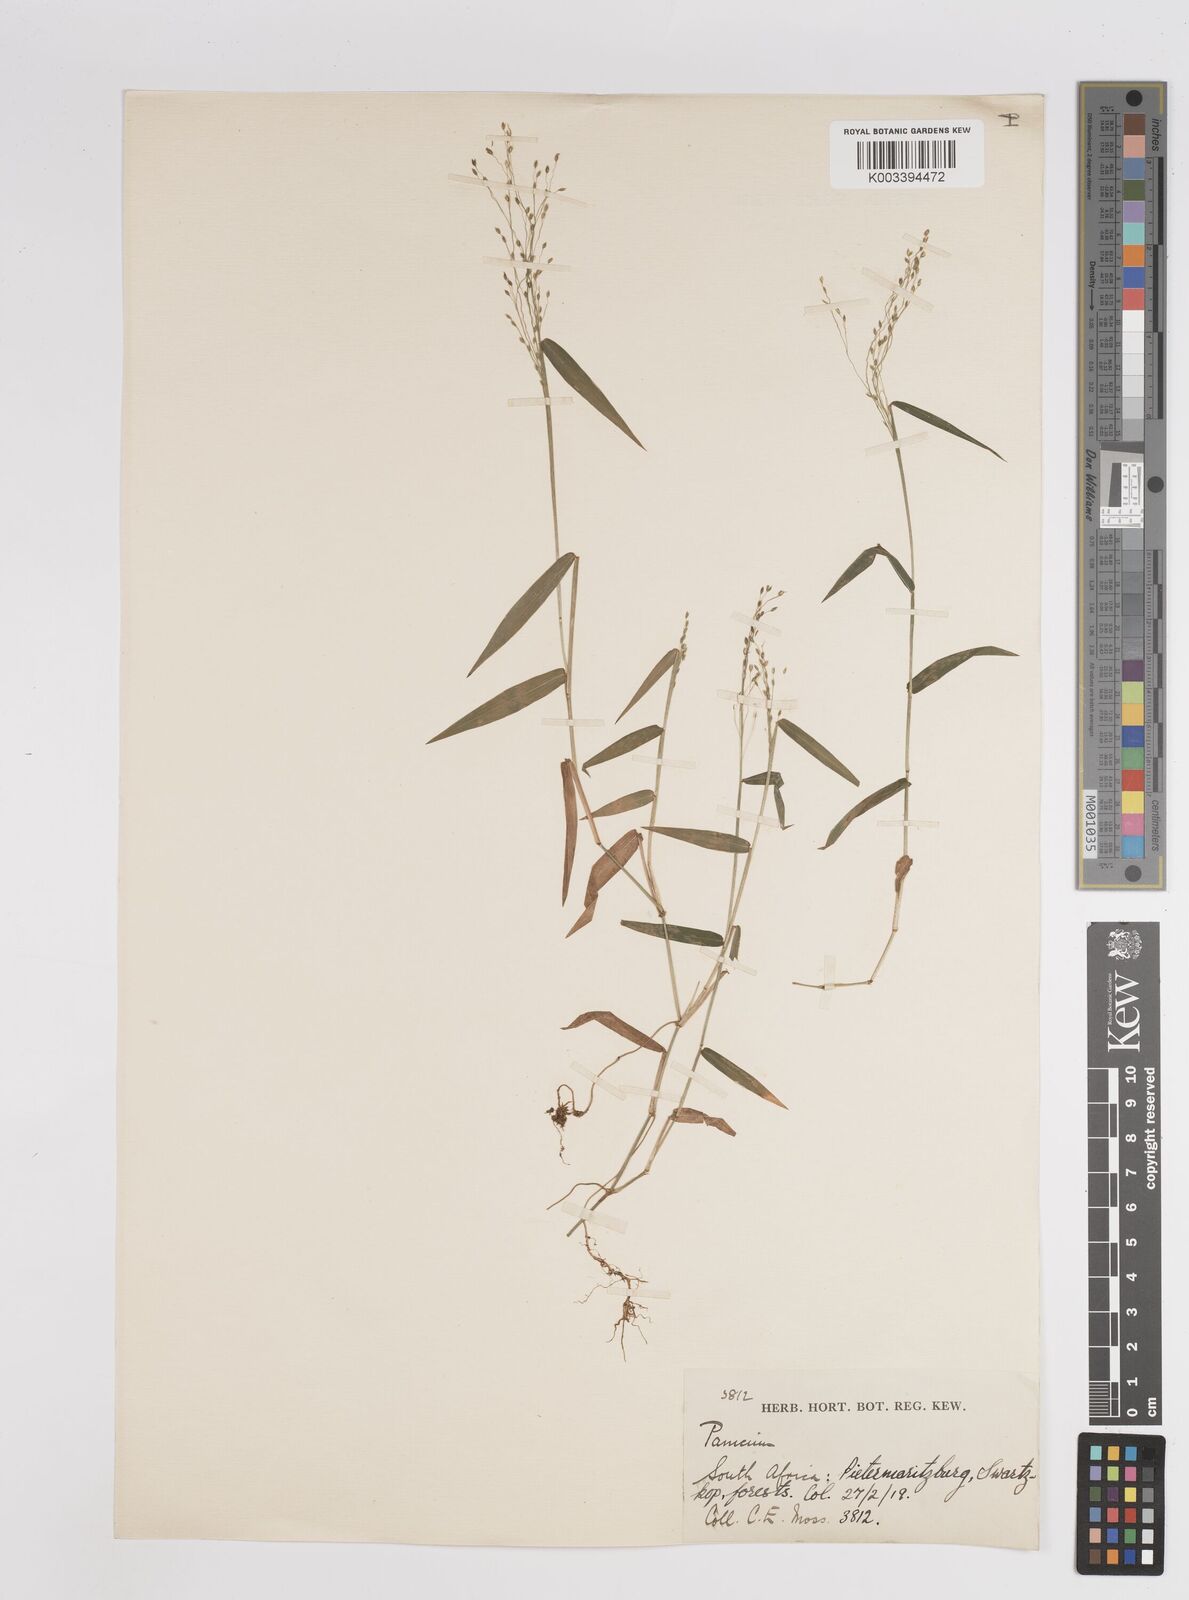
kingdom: Plantae
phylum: Tracheophyta
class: Liliopsida
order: Poales
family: Poaceae
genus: Panicum
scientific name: Panicum
